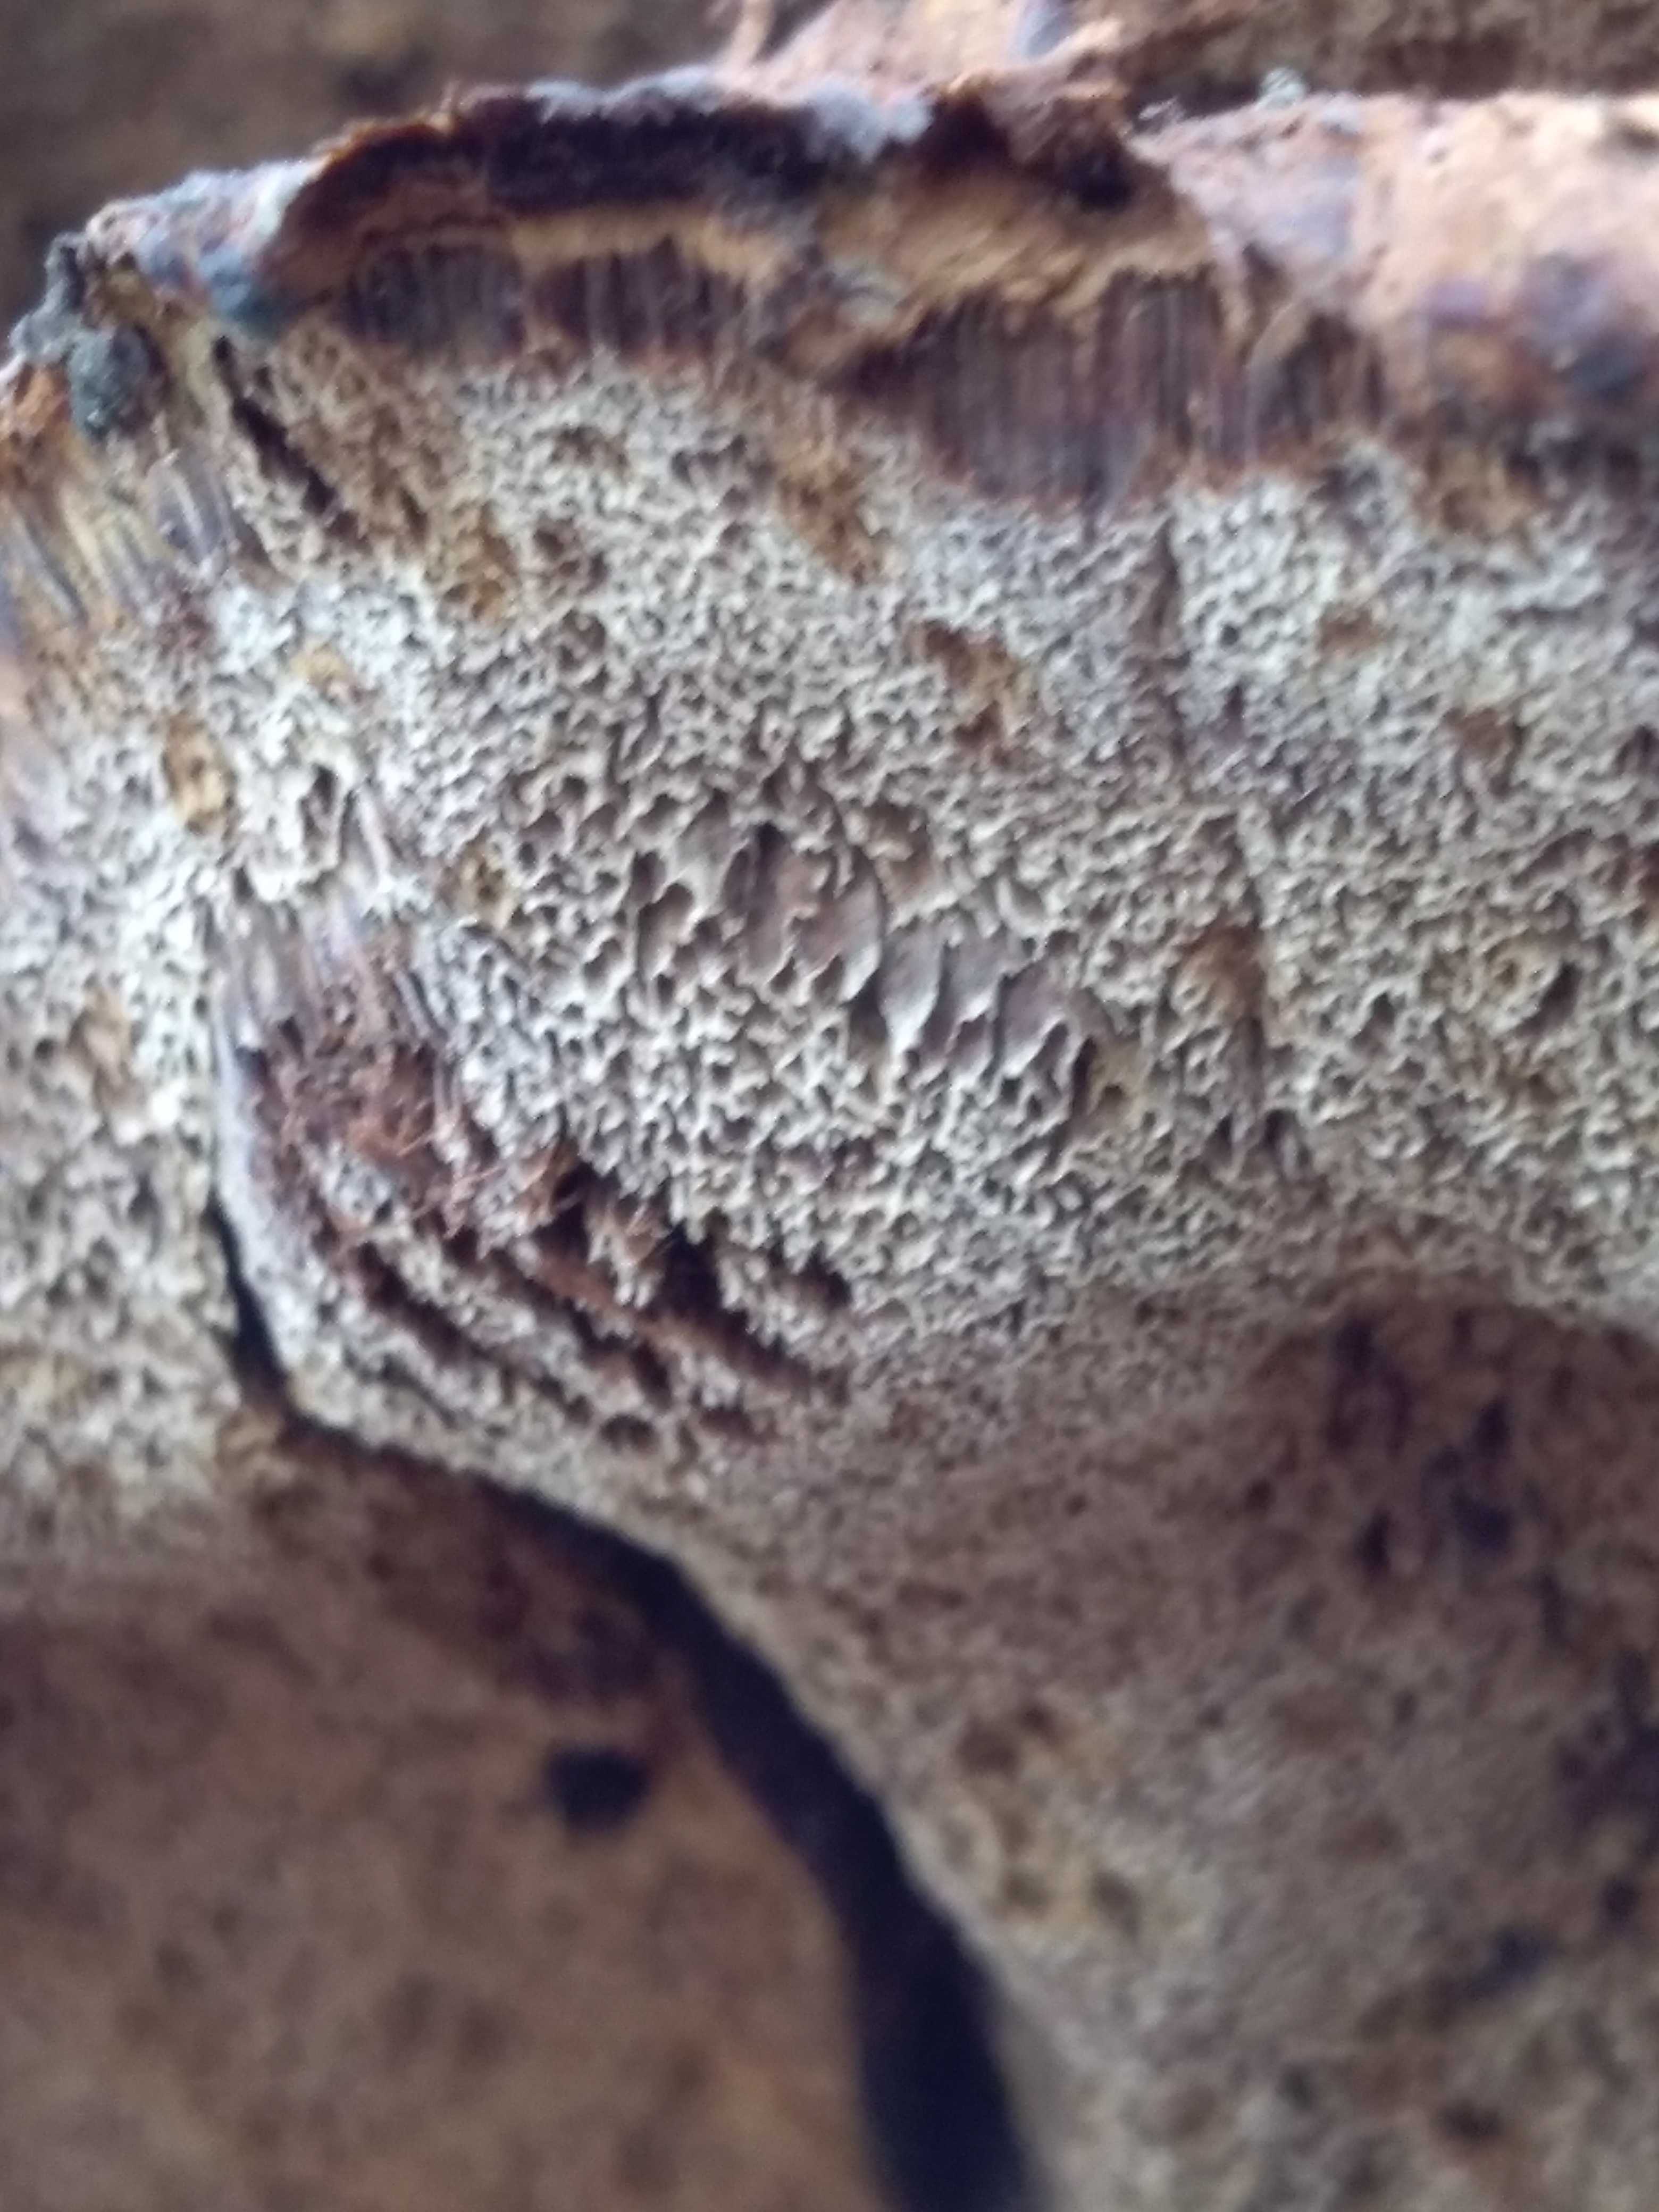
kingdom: Fungi
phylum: Basidiomycota
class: Agaricomycetes
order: Hymenochaetales
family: Hymenochaetaceae
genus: Xanthoporia
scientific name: Xanthoporia radiata
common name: elle-spejlporesvamp
